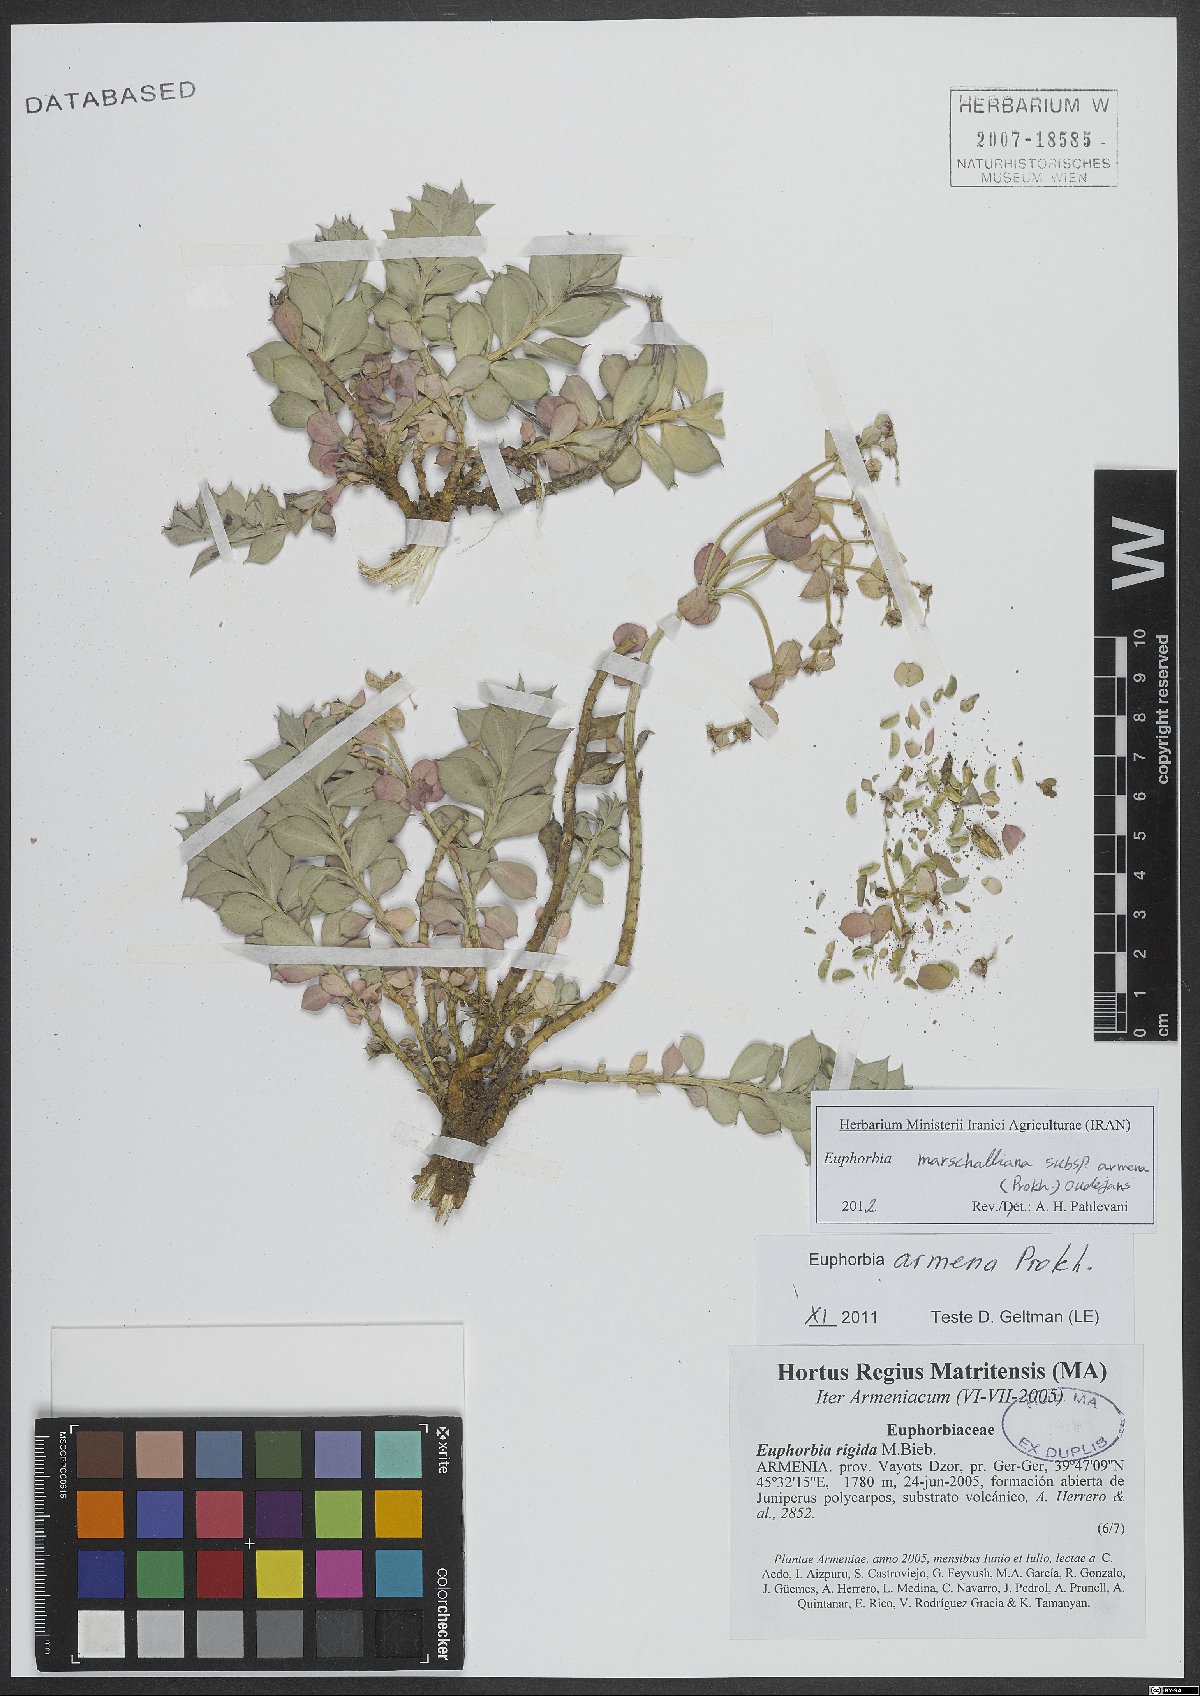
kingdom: Plantae
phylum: Tracheophyta
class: Magnoliopsida
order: Malpighiales
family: Euphorbiaceae
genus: Euphorbia
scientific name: Euphorbia marschalliana
